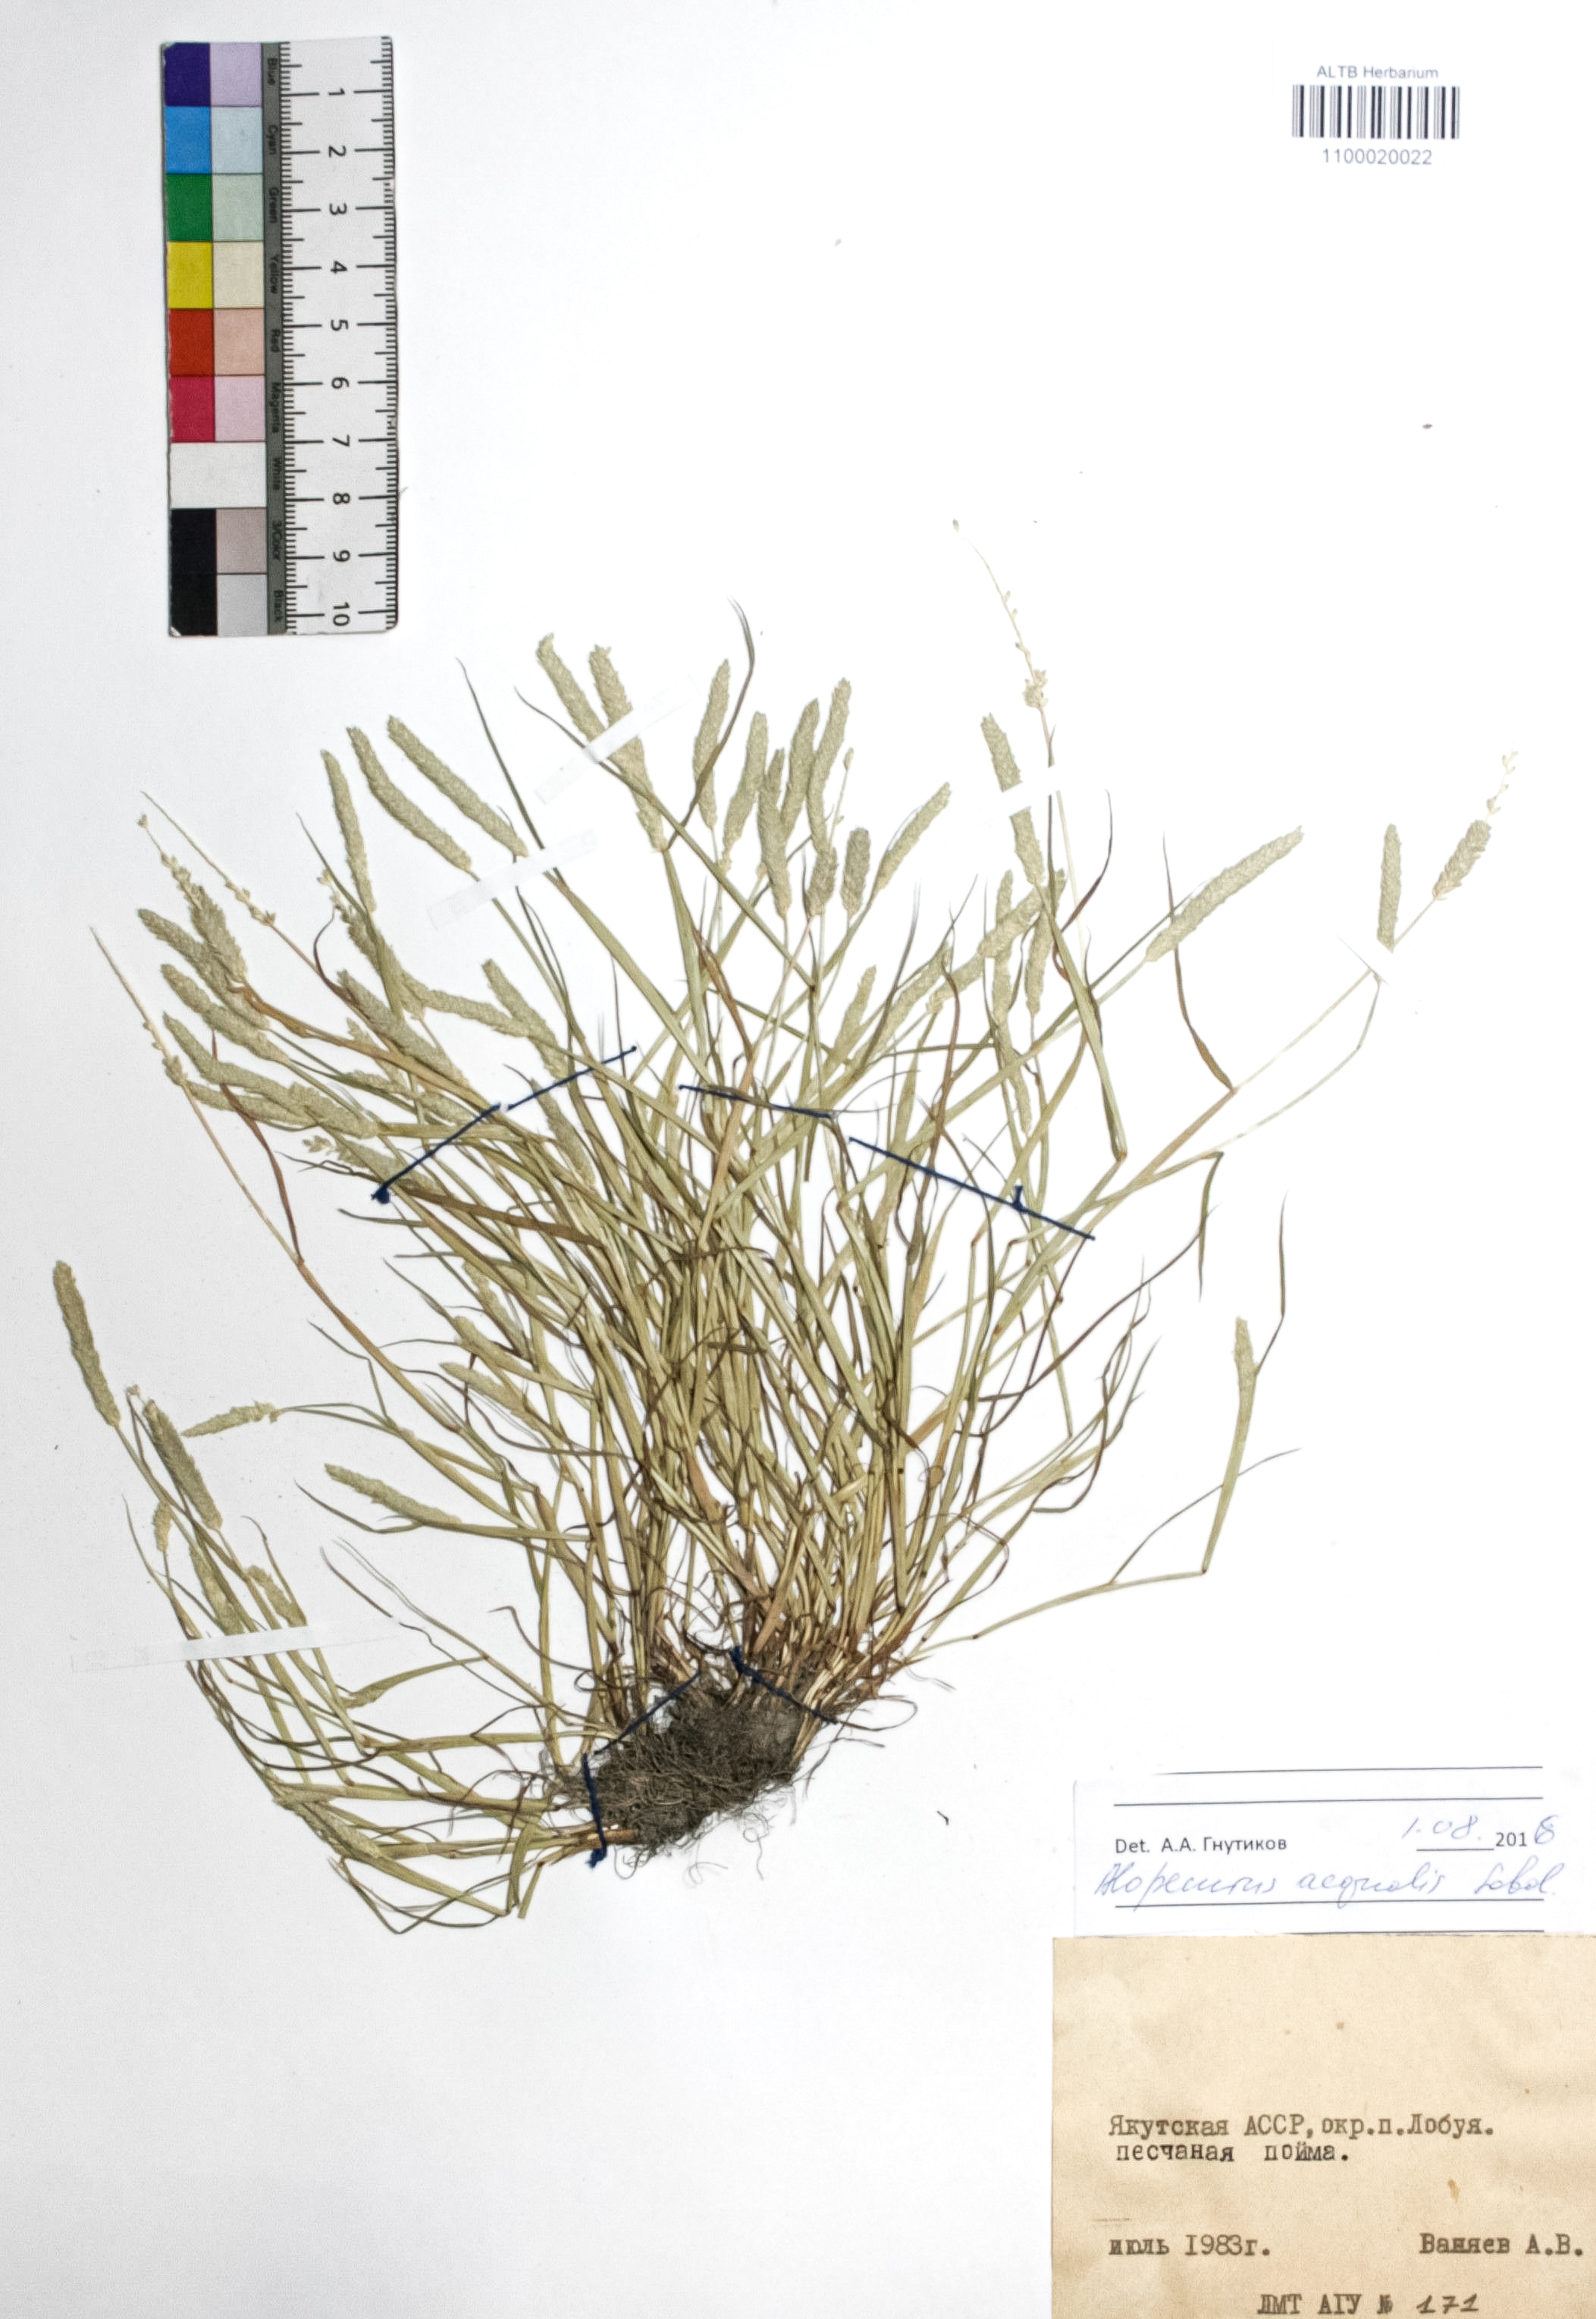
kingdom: Plantae
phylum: Tracheophyta
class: Liliopsida
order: Poales
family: Poaceae
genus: Alopecurus
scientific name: Alopecurus aequalis
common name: Orange foxtail
